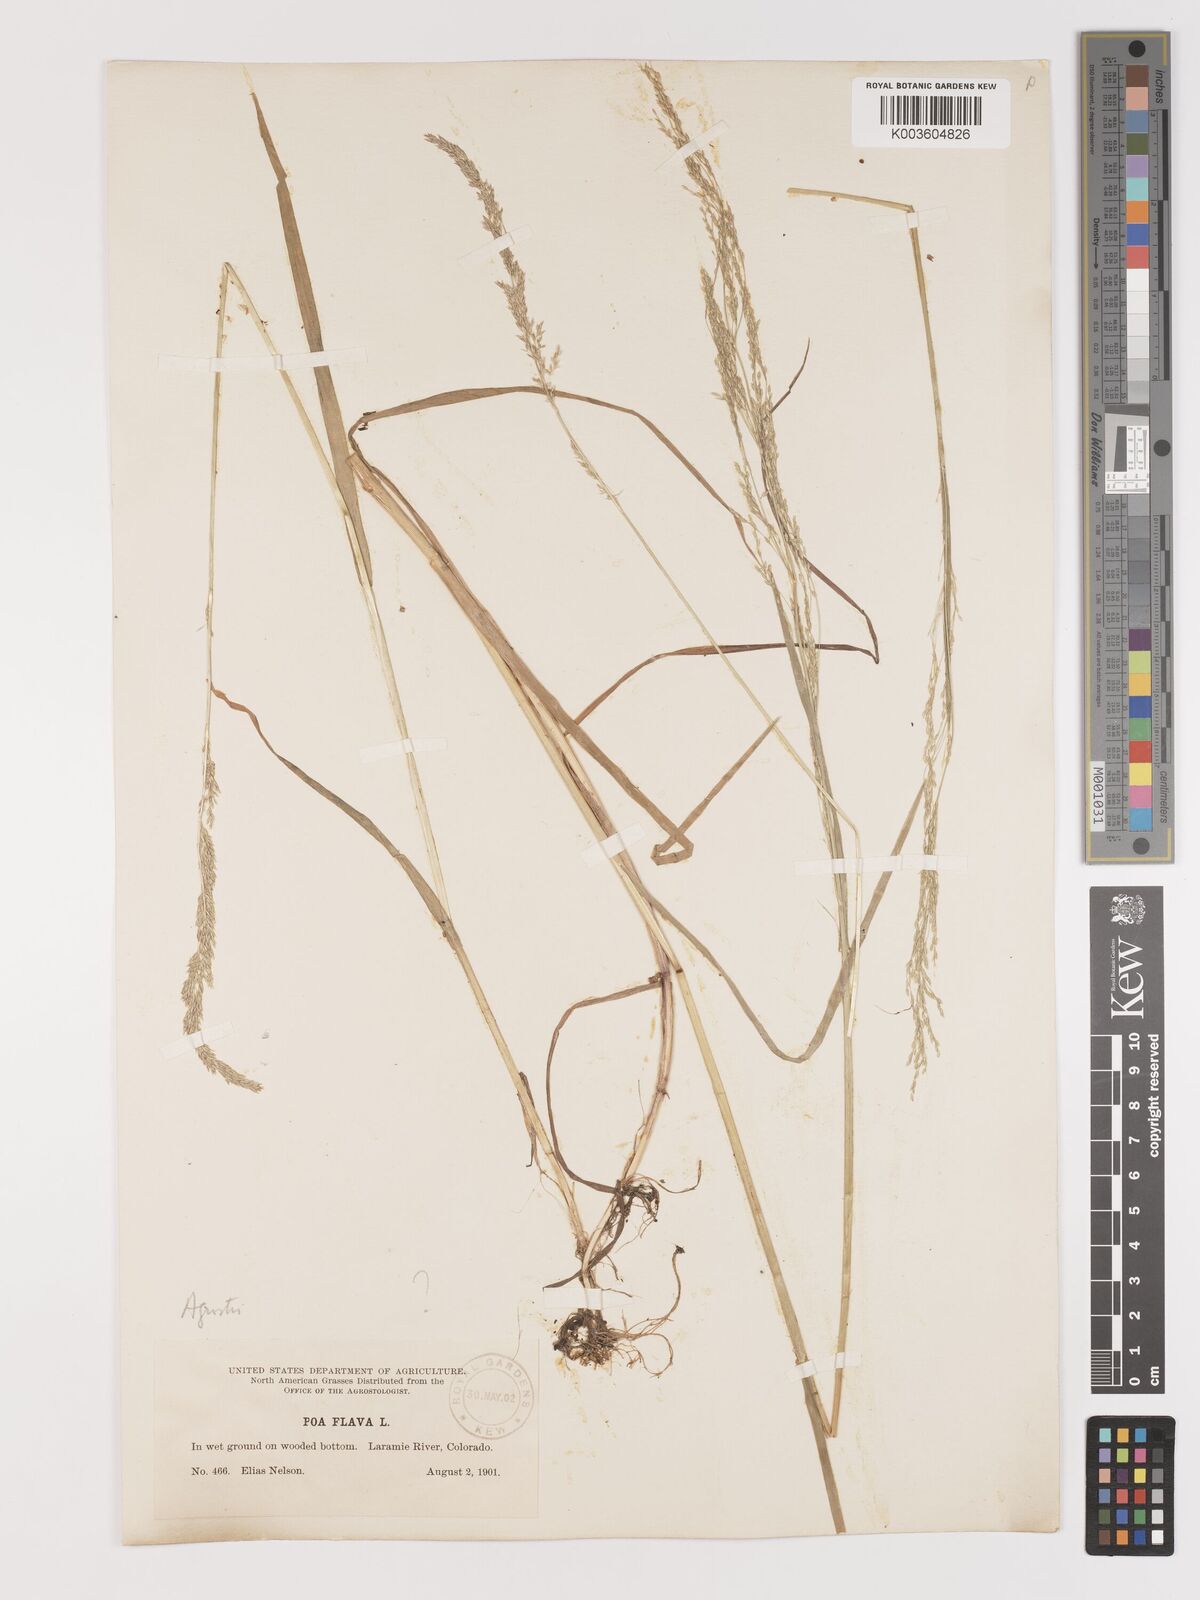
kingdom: Plantae
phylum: Tracheophyta
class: Liliopsida
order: Poales
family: Poaceae
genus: Agrostis
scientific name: Agrostis
